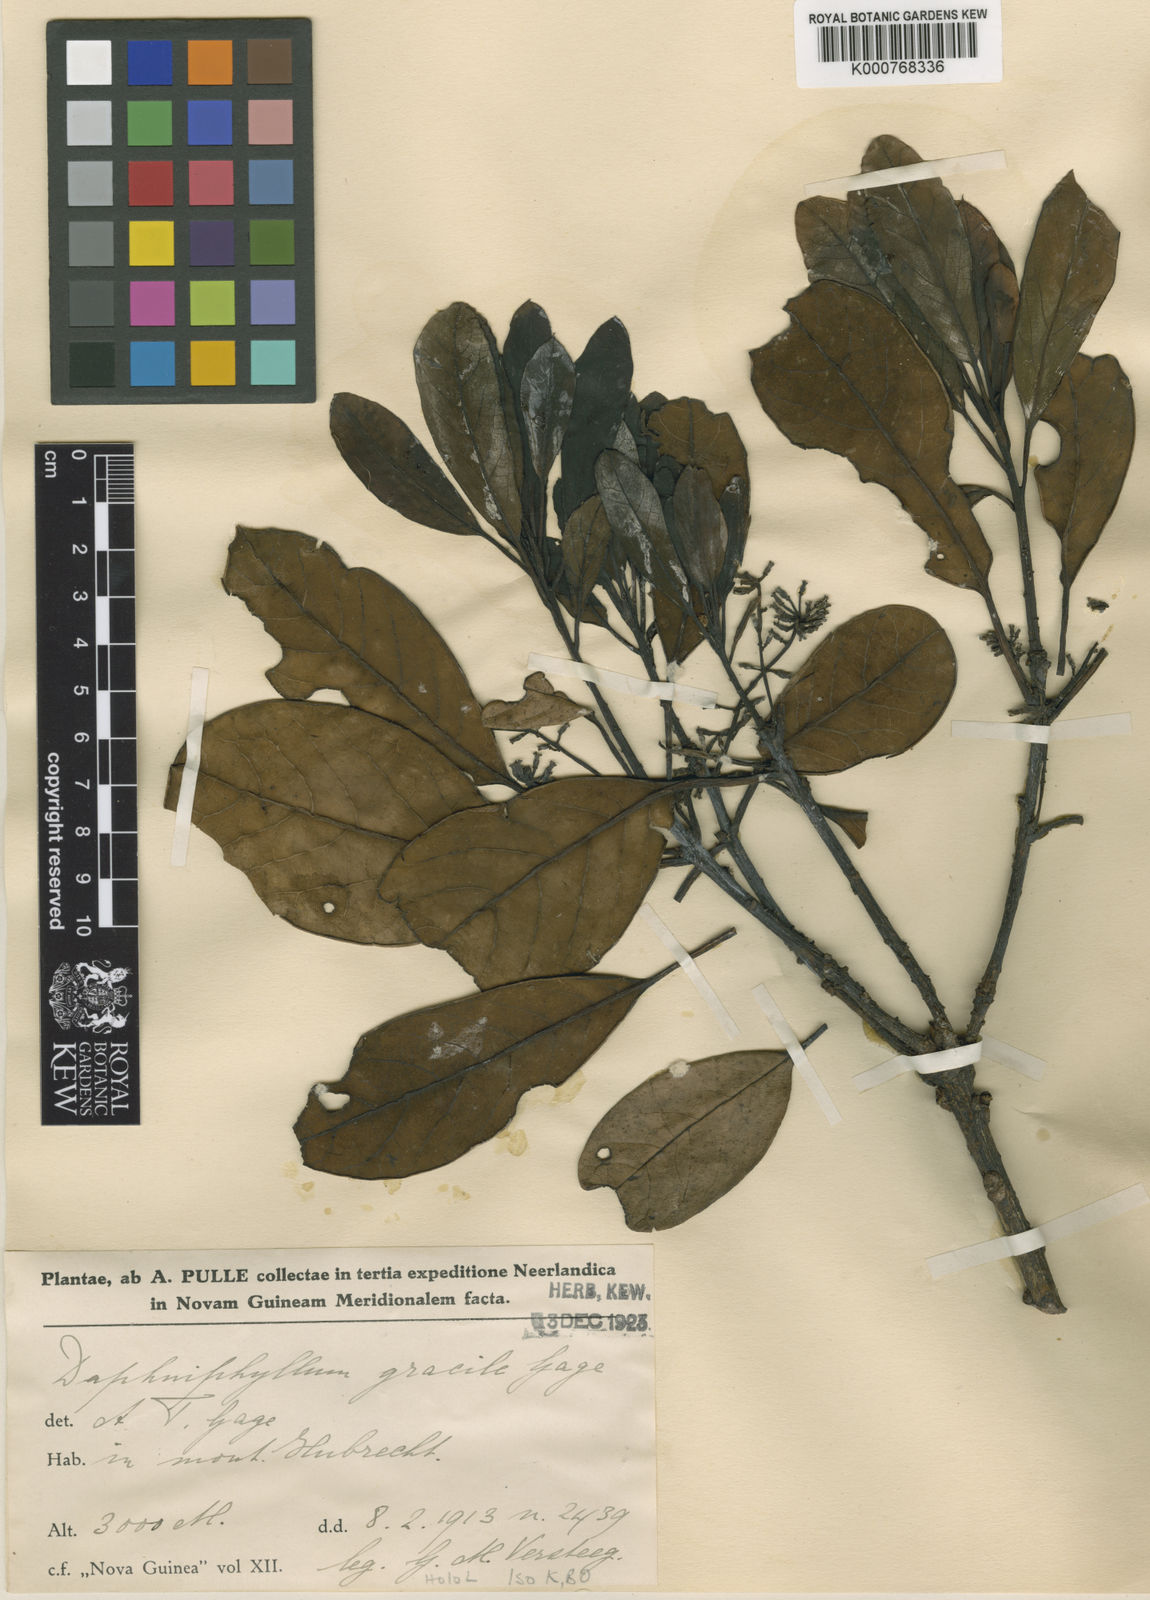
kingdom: Plantae
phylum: Tracheophyta
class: Magnoliopsida
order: Saxifragales
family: Daphniphyllaceae
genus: Daphniphyllum
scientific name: Daphniphyllum gracile
